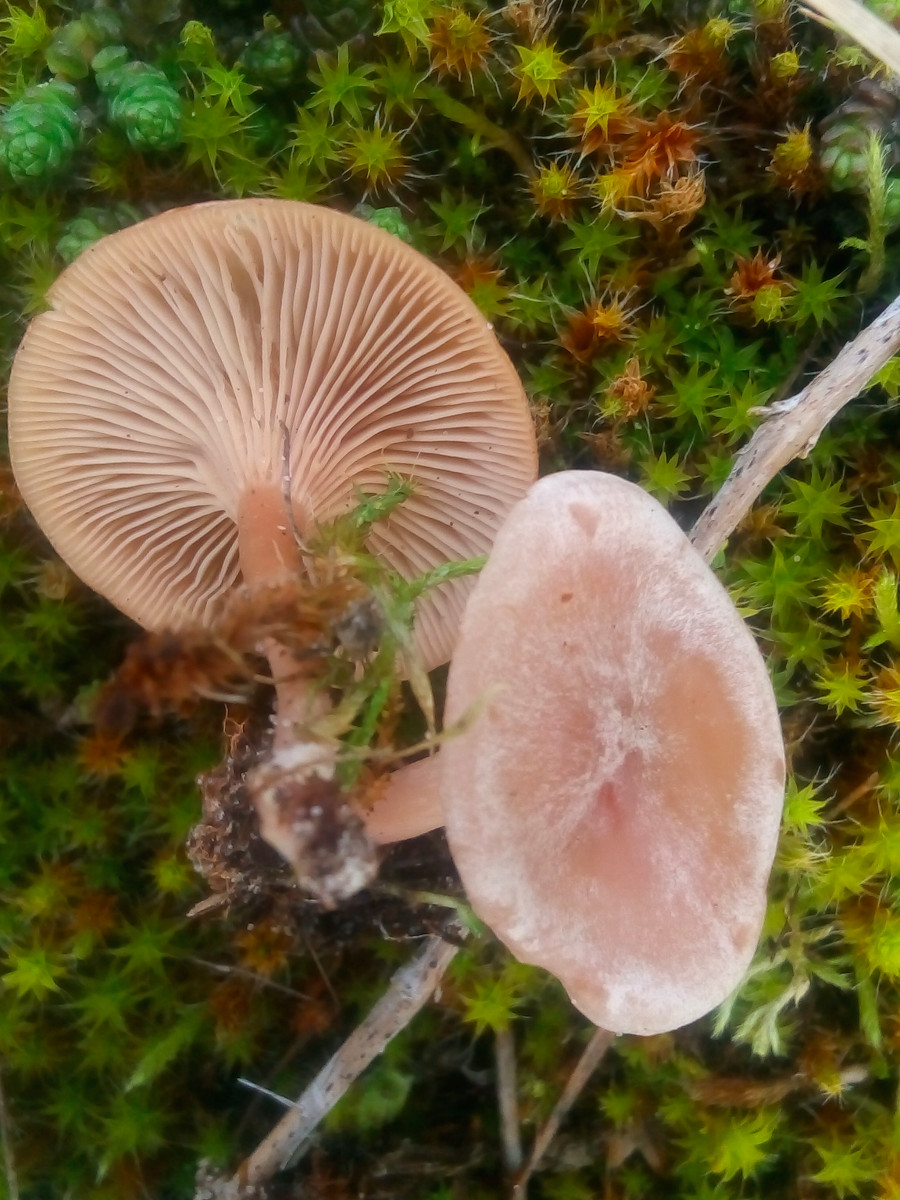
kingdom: Fungi
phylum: Basidiomycota
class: Agaricomycetes
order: Agaricales
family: Tricholomataceae
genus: Clitocybe
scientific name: Clitocybe rivulosa
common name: eng-tragthat
